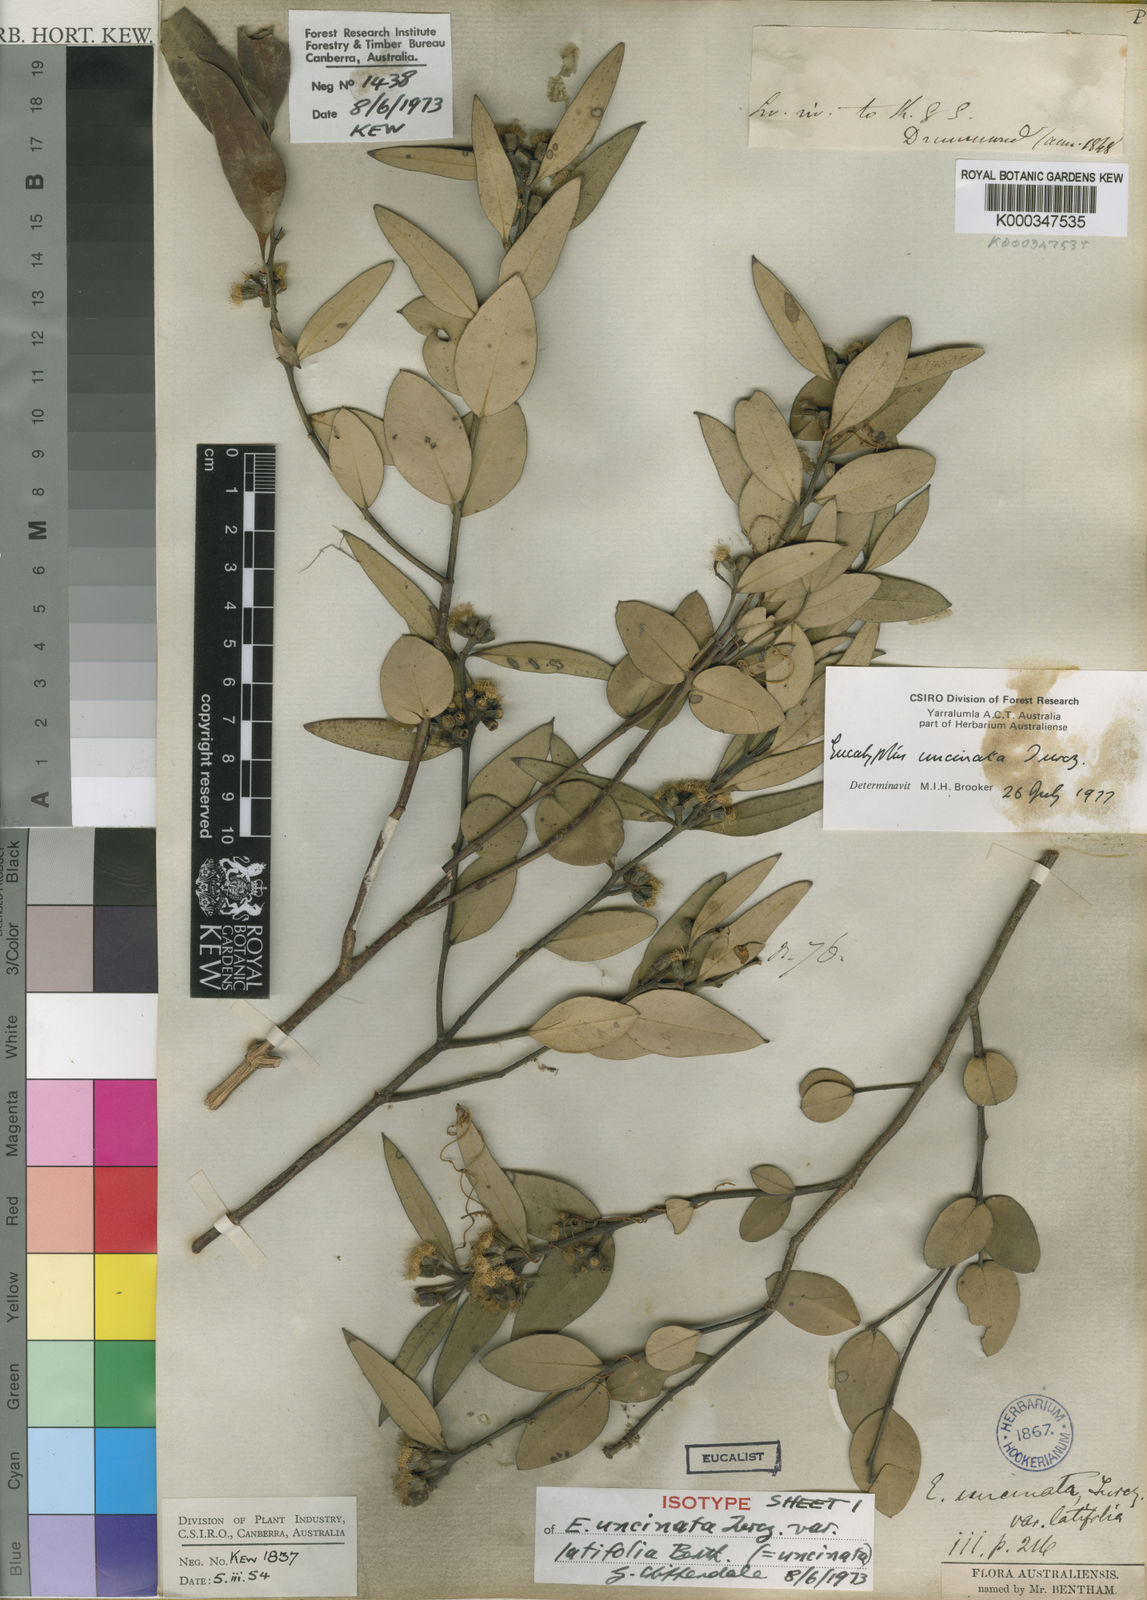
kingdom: Plantae
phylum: Tracheophyta
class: Magnoliopsida
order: Myrtales
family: Myrtaceae
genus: Eucalyptus
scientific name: Eucalyptus uncinata
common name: Hooked-leaved mallee
